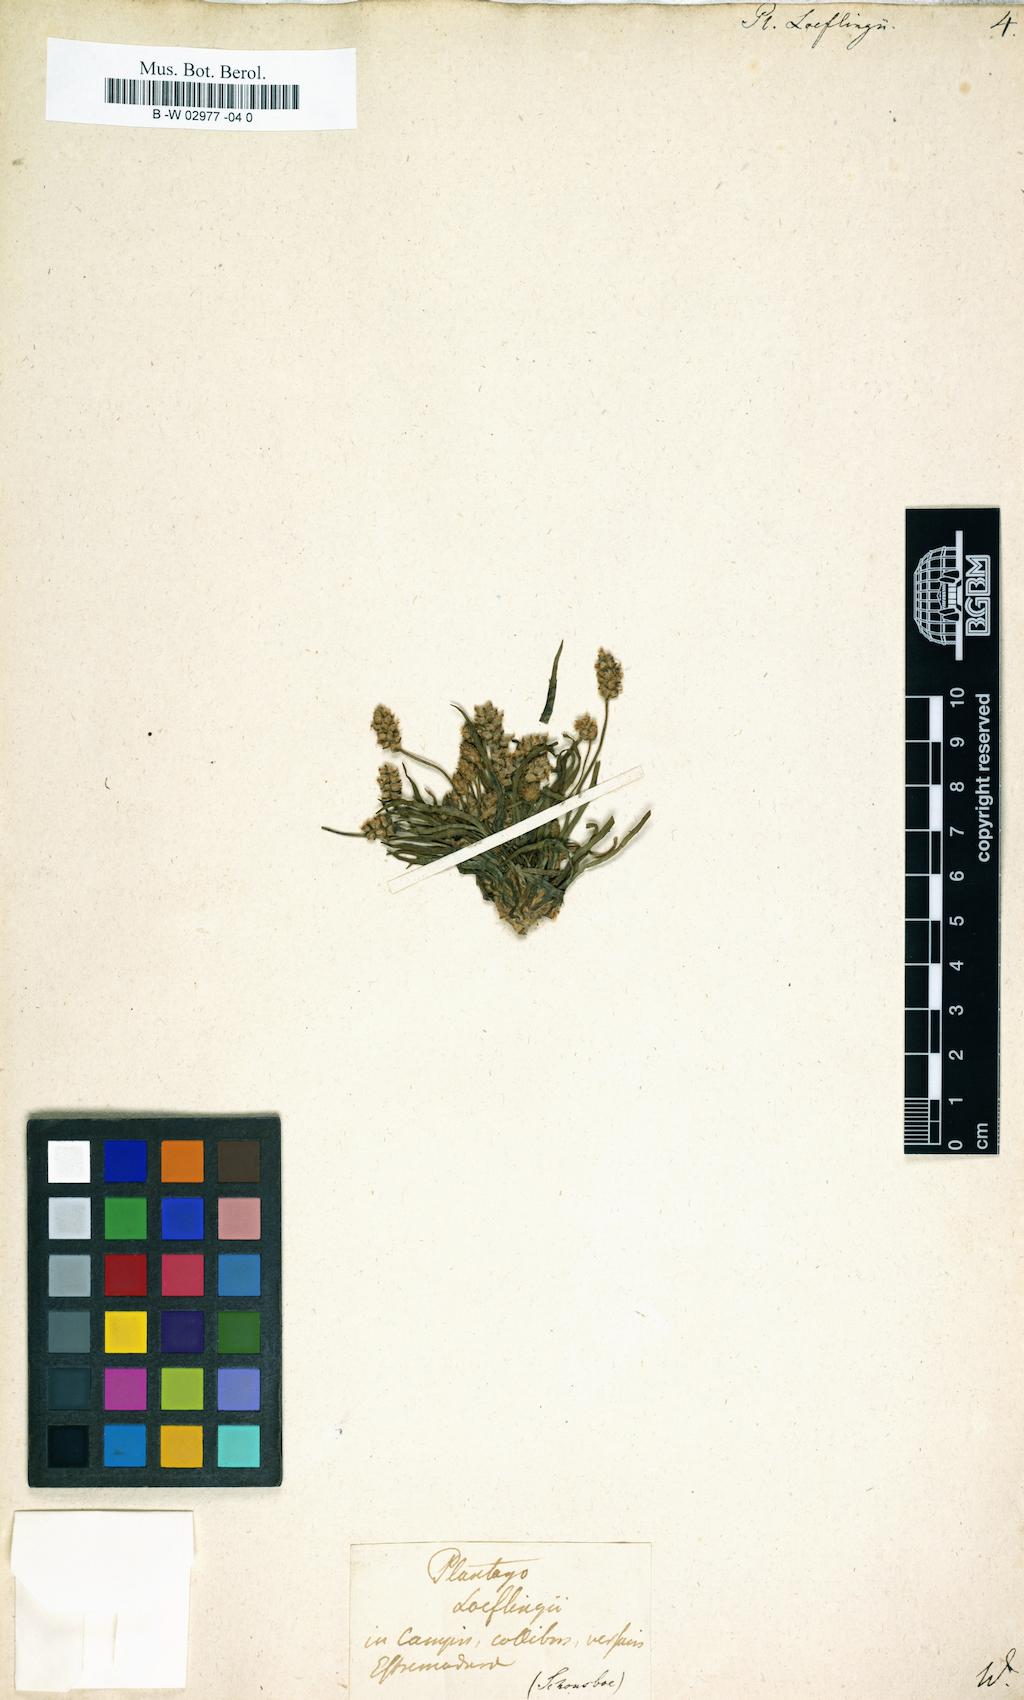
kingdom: Plantae
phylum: Tracheophyta
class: Magnoliopsida
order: Lamiales
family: Plantaginaceae
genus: Plantago
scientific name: Plantago loeflingii
